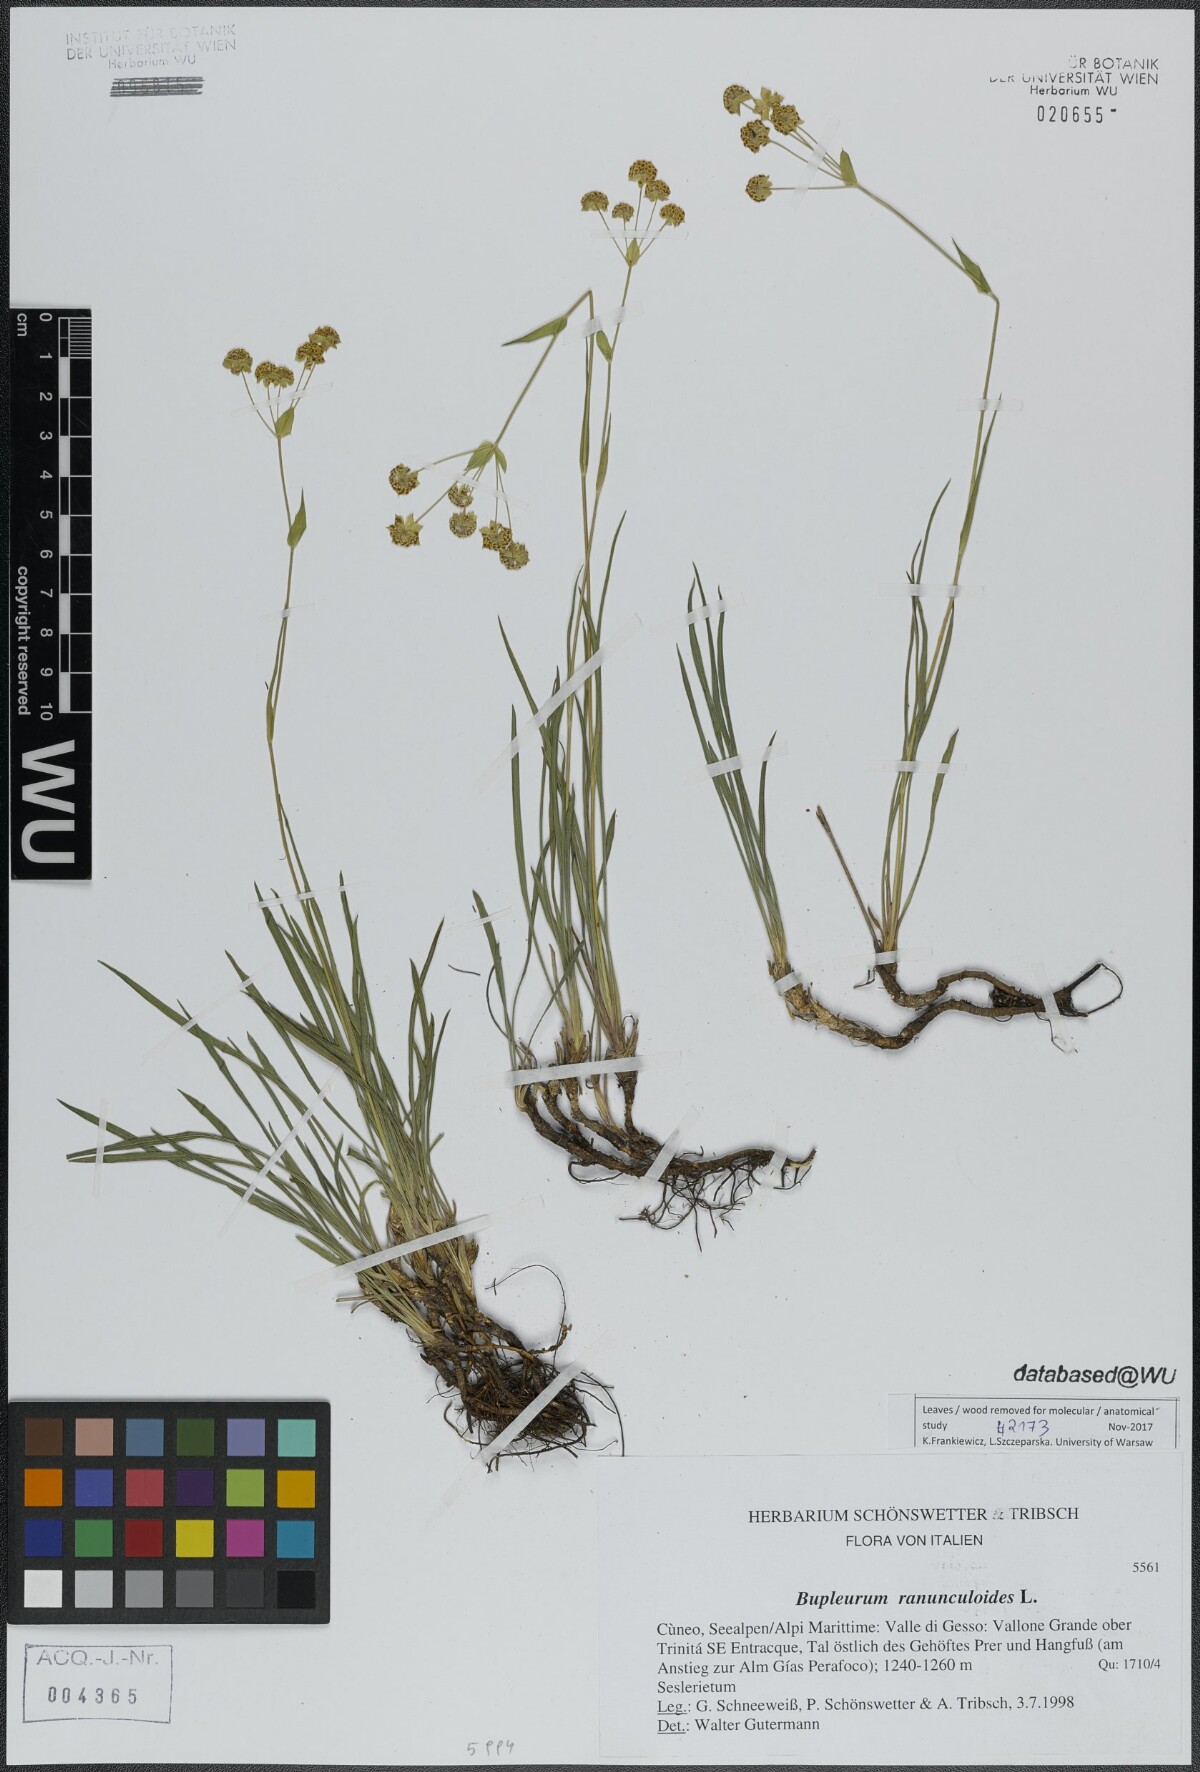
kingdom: Plantae
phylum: Tracheophyta
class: Magnoliopsida
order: Apiales
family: Apiaceae
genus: Bupleurum
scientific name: Bupleurum ranunculoides
